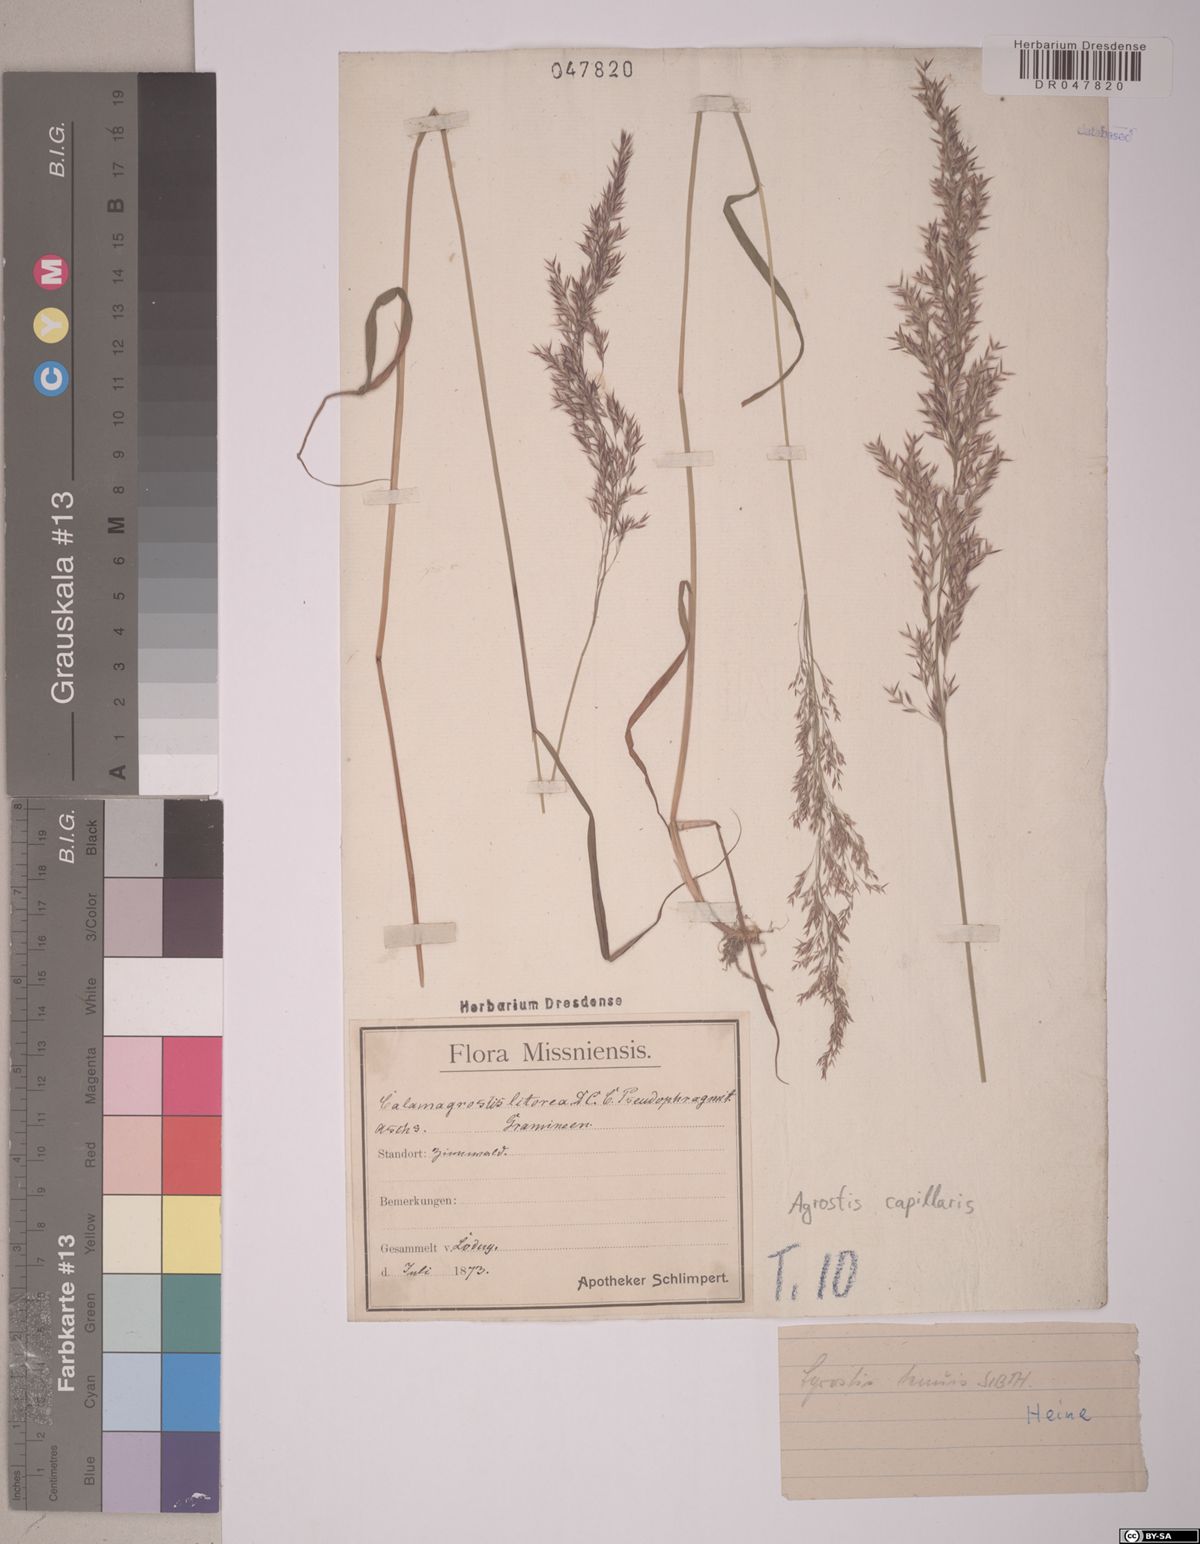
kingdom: Plantae
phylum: Tracheophyta
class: Liliopsida
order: Poales
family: Poaceae
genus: Agrostis
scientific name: Agrostis capillaris
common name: Colonial bentgrass
